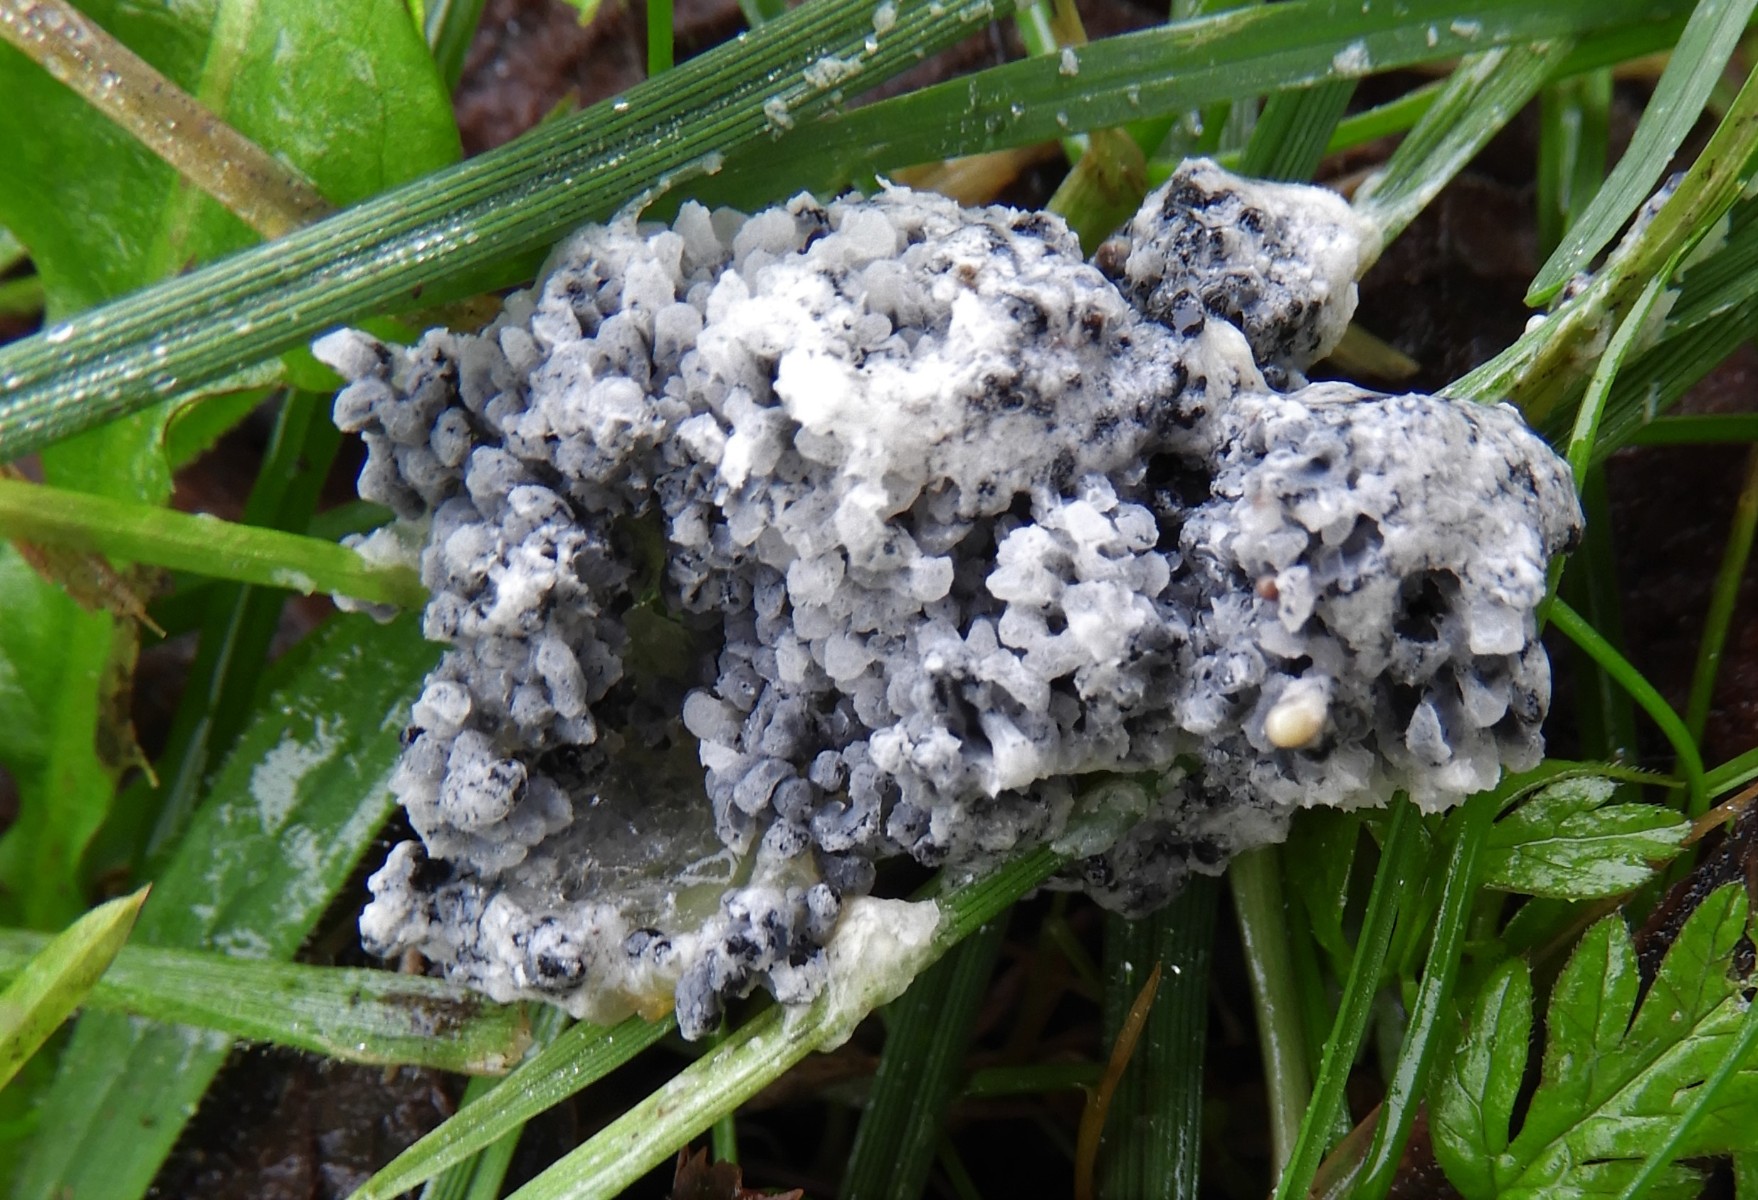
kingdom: Protozoa
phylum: Mycetozoa
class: Myxomycetes
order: Physarales
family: Physaraceae
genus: Didymium
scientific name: Didymium
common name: urteskum
